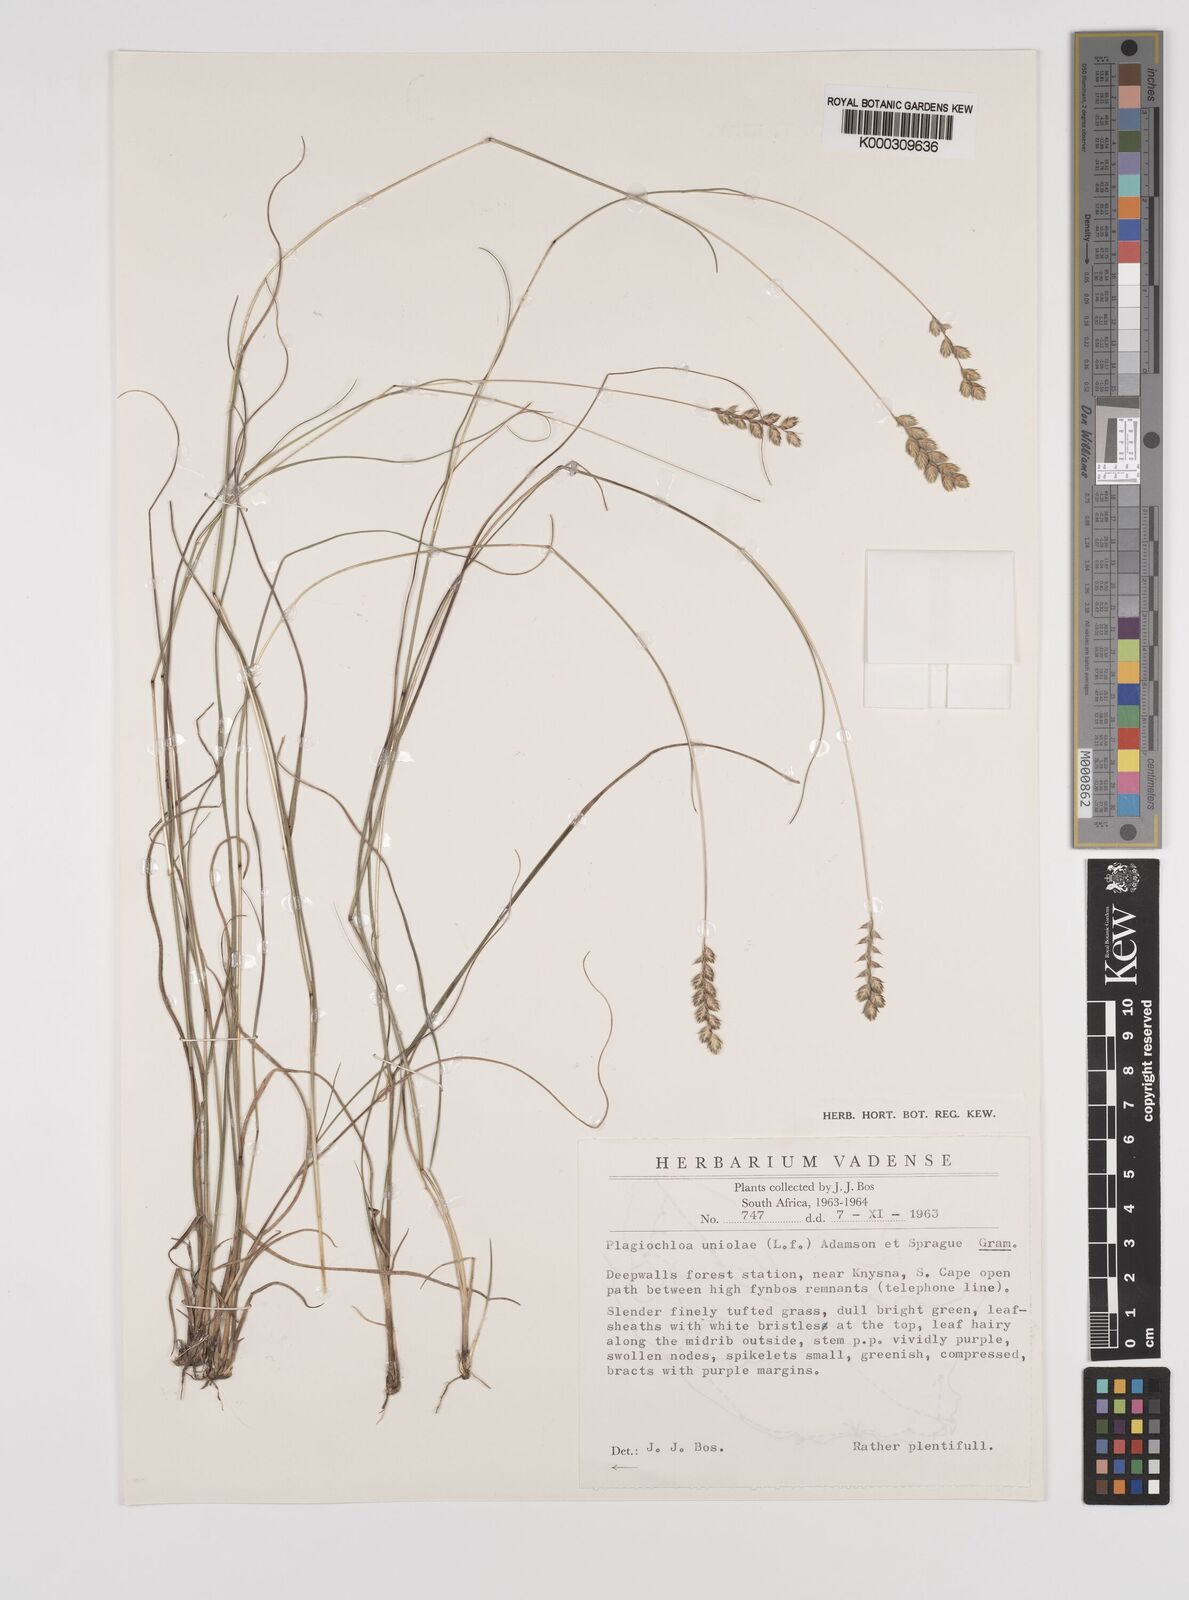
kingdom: Plantae
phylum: Tracheophyta
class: Liliopsida
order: Poales
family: Poaceae
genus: Tribolium
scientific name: Tribolium uniolae
